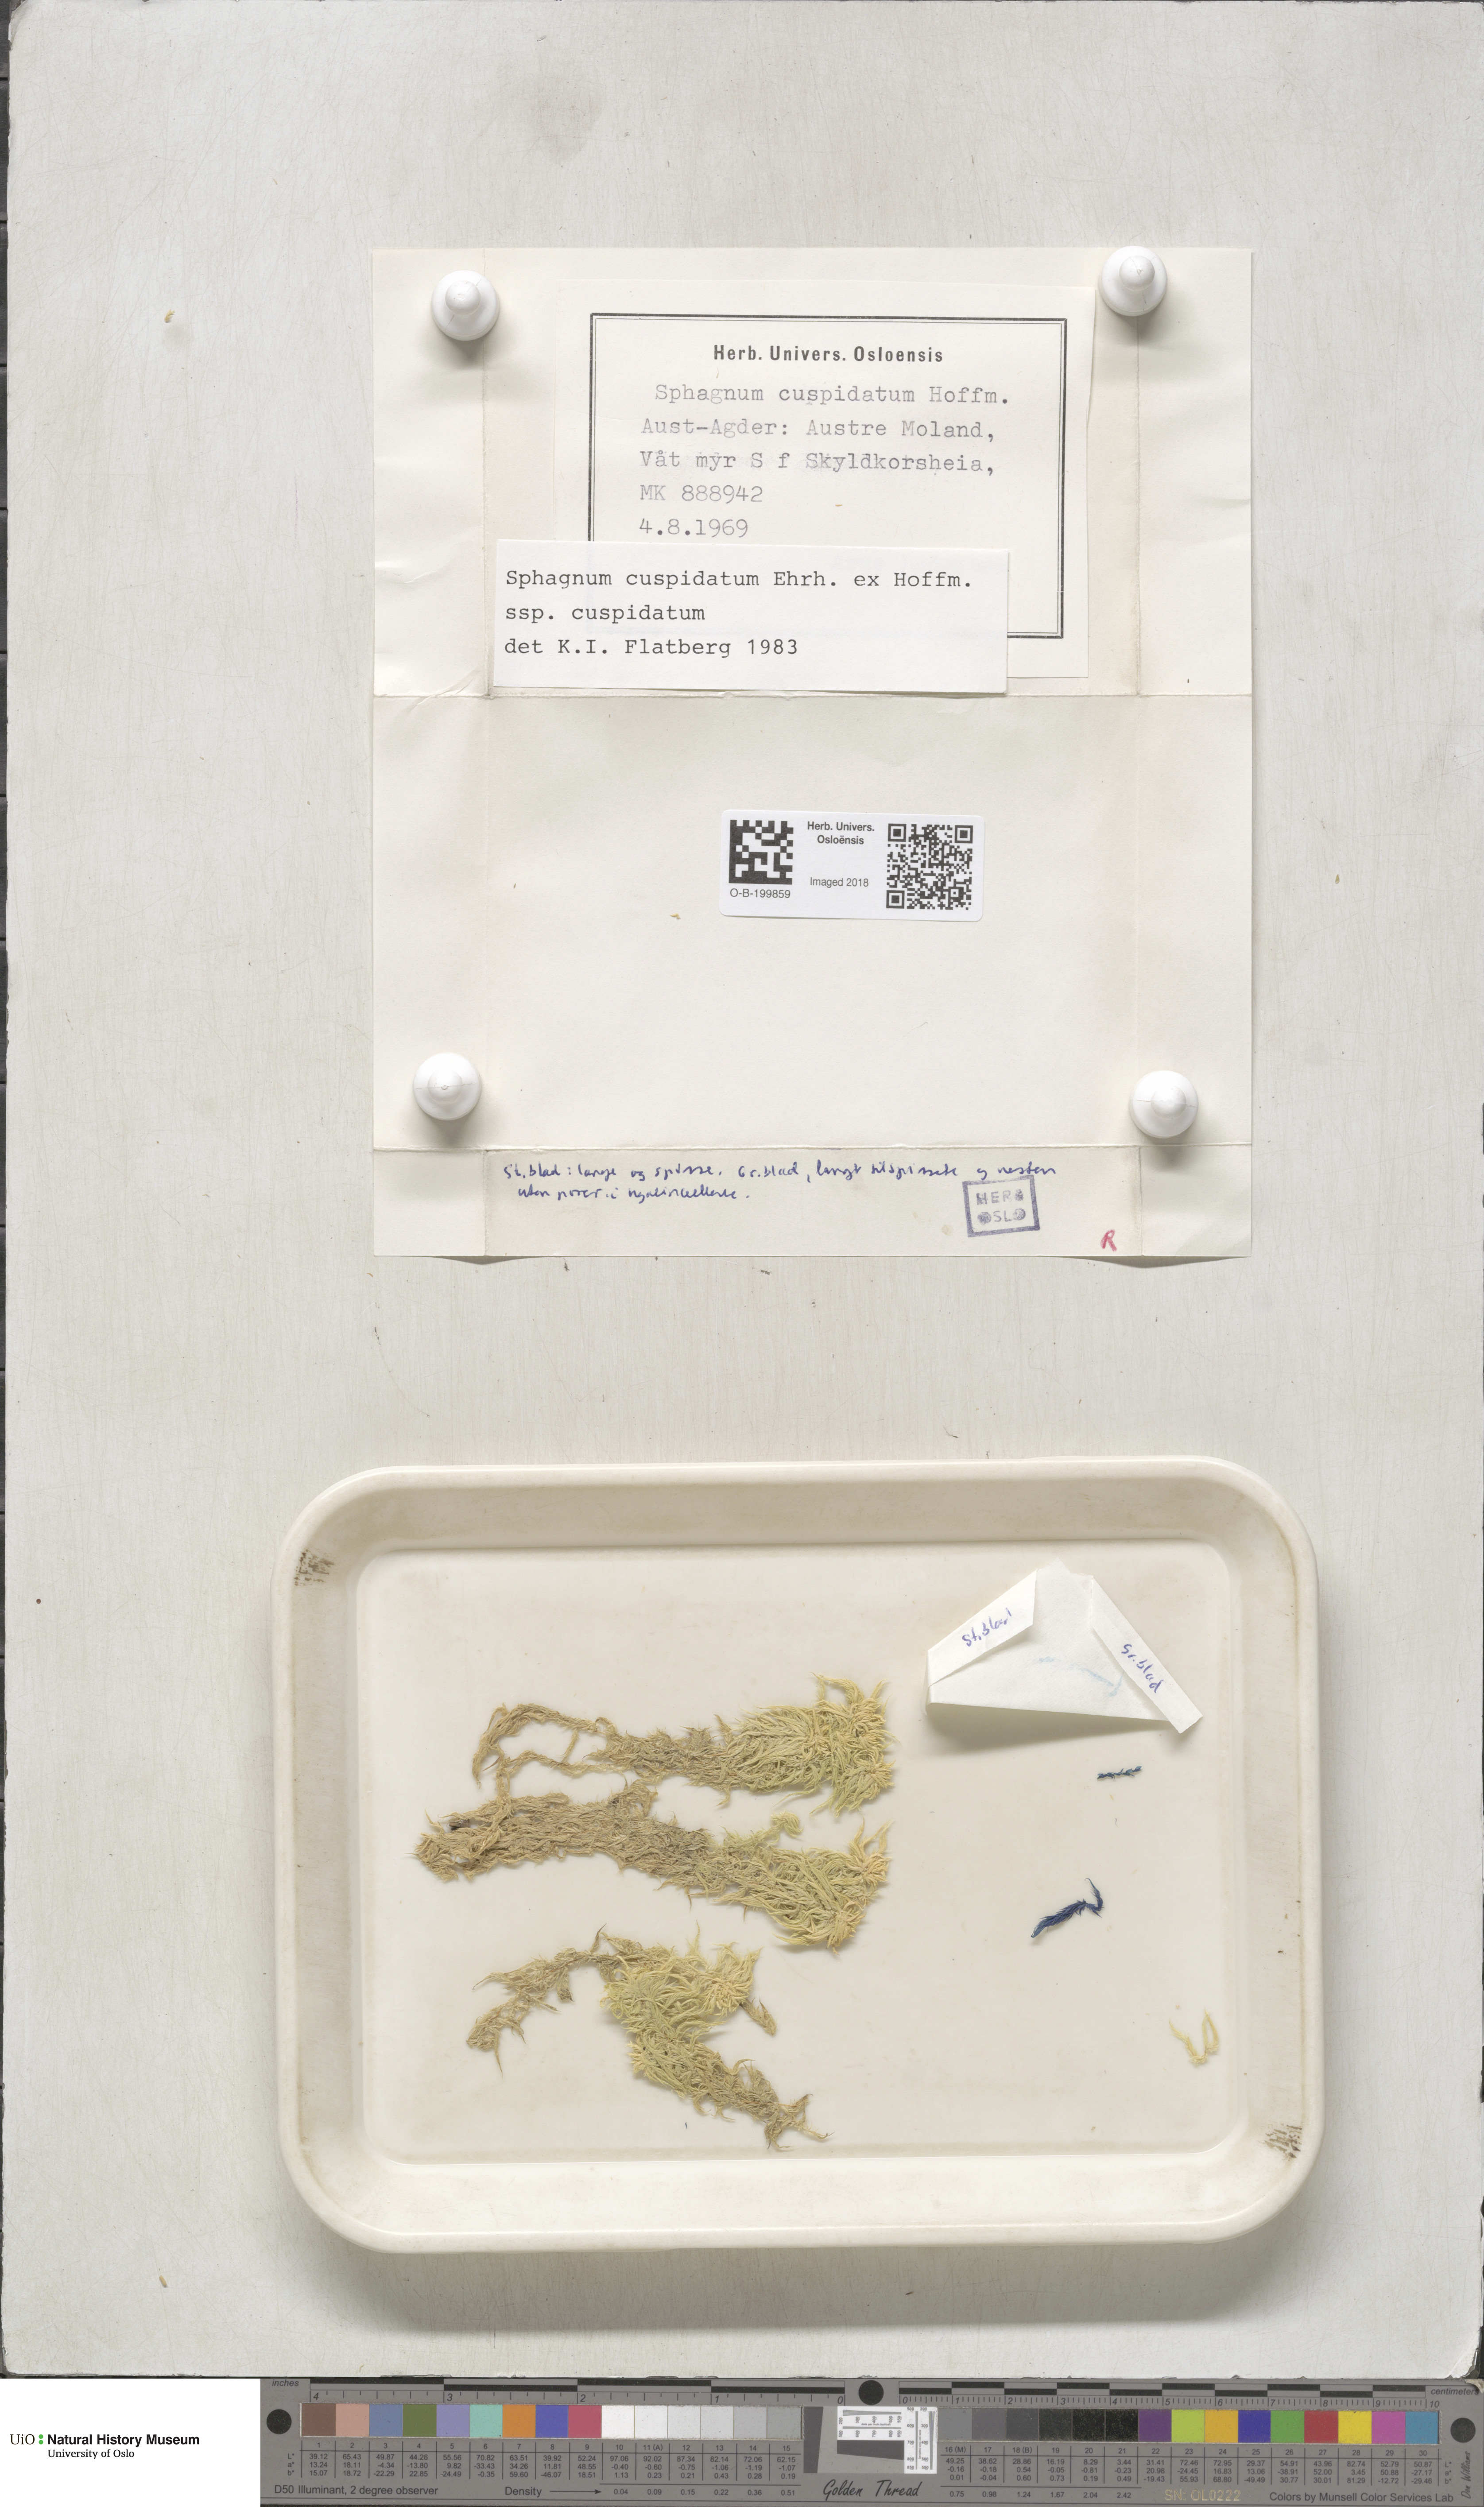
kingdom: Plantae
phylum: Bryophyta
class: Sphagnopsida
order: Sphagnales
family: Sphagnaceae
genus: Sphagnum
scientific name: Sphagnum cuspidatum
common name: Feathery peat moss
